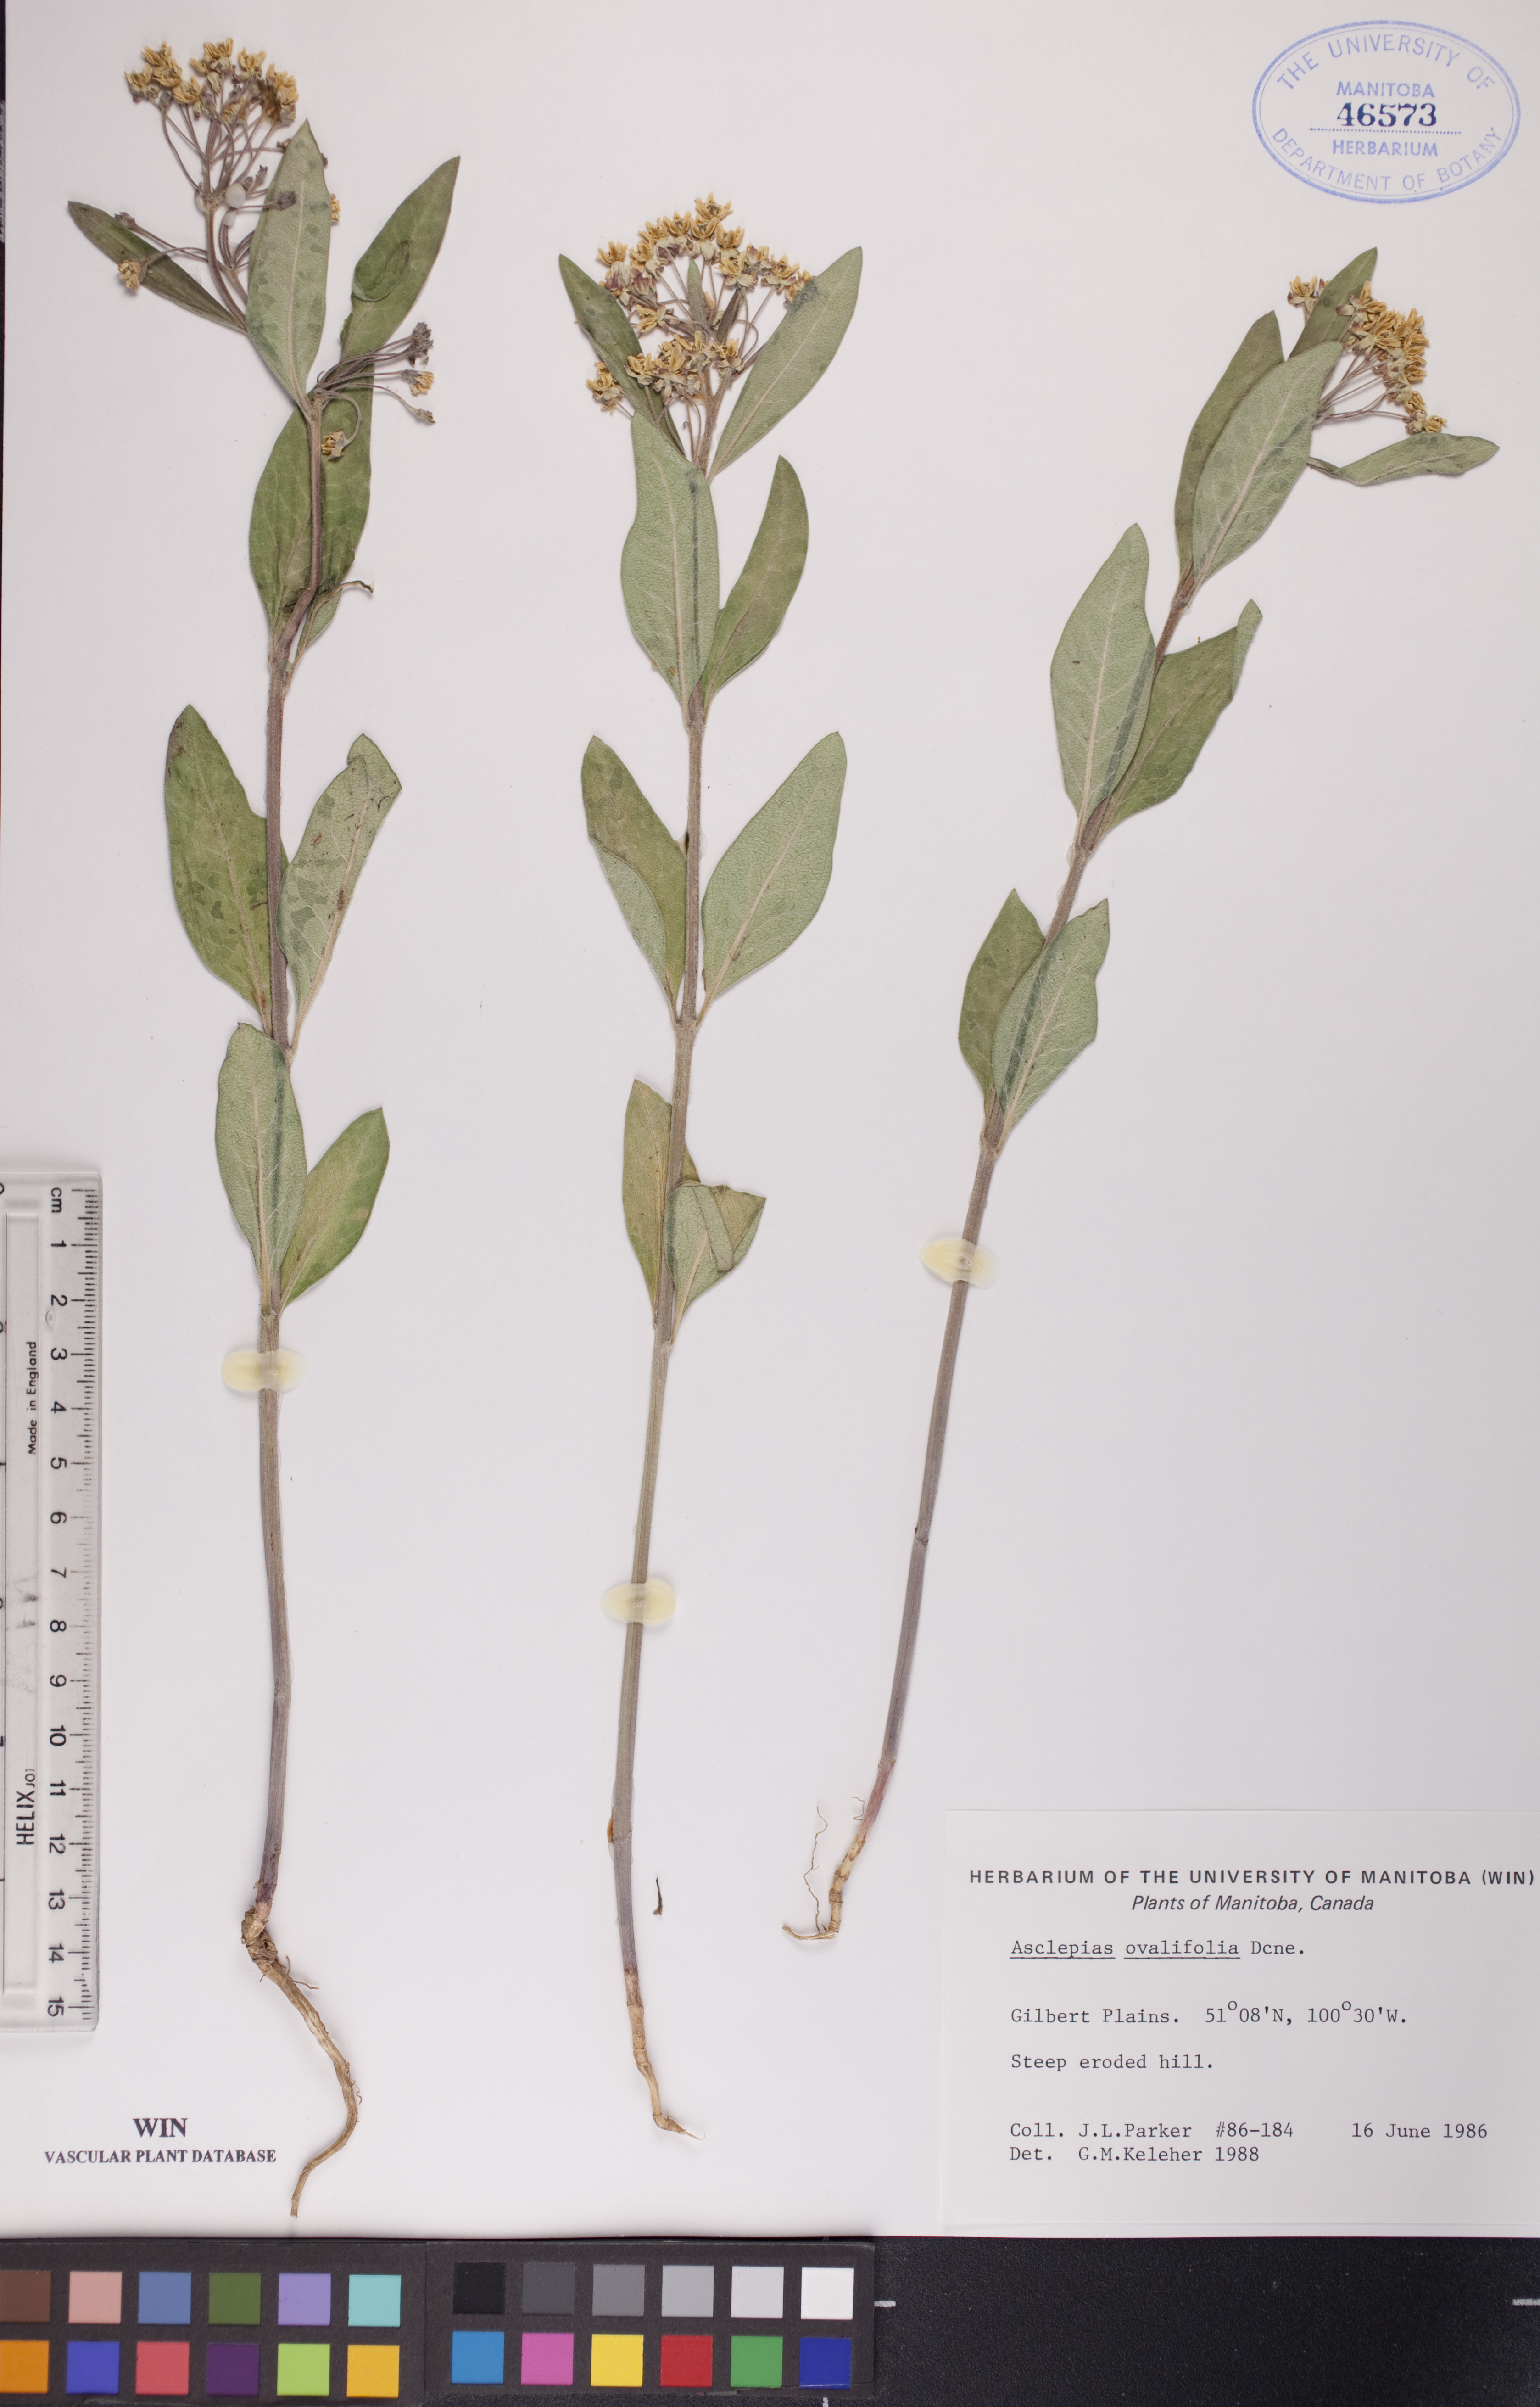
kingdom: Plantae
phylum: Tracheophyta
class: Magnoliopsida
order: Gentianales
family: Apocynaceae
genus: Asclepias
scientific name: Asclepias ovalifolia
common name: Dwarf milkweed
